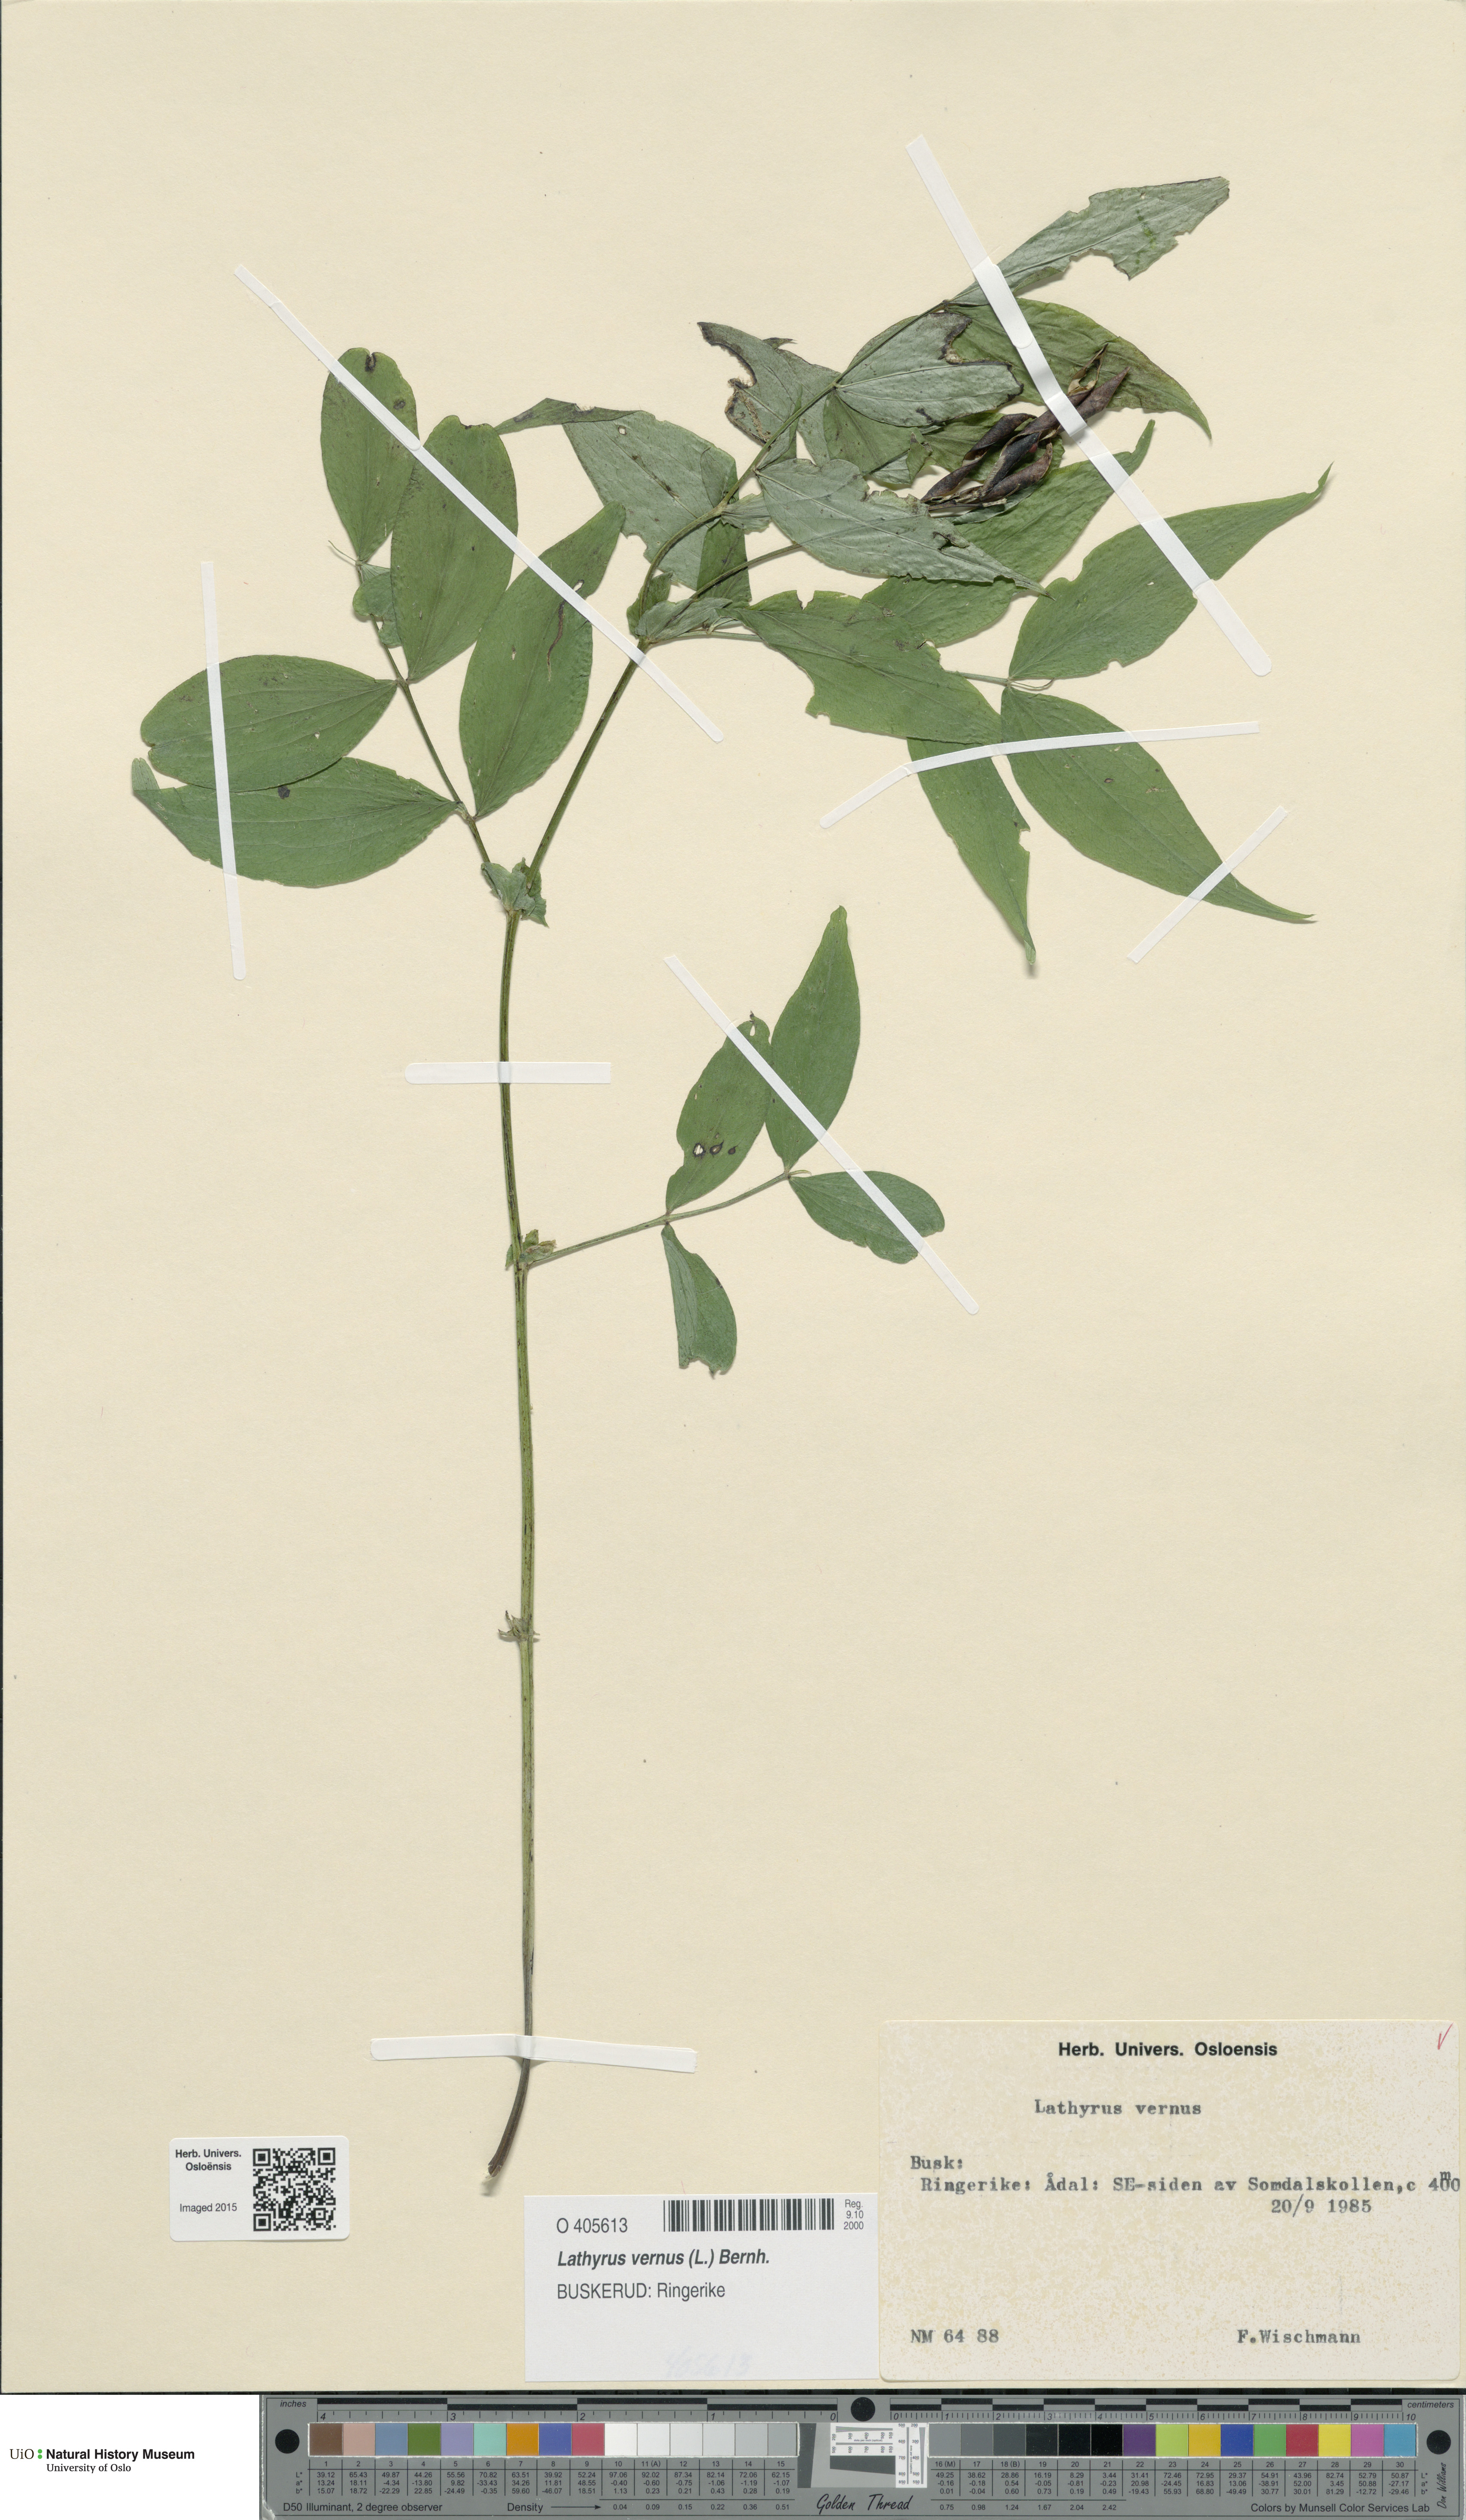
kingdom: Plantae
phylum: Tracheophyta
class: Magnoliopsida
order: Fabales
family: Fabaceae
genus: Lathyrus
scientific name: Lathyrus vernus
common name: Spring pea
